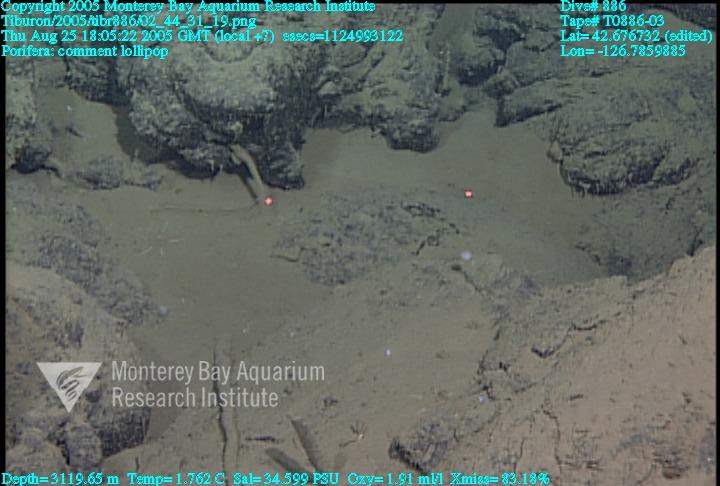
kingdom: Animalia
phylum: Porifera
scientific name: Porifera
